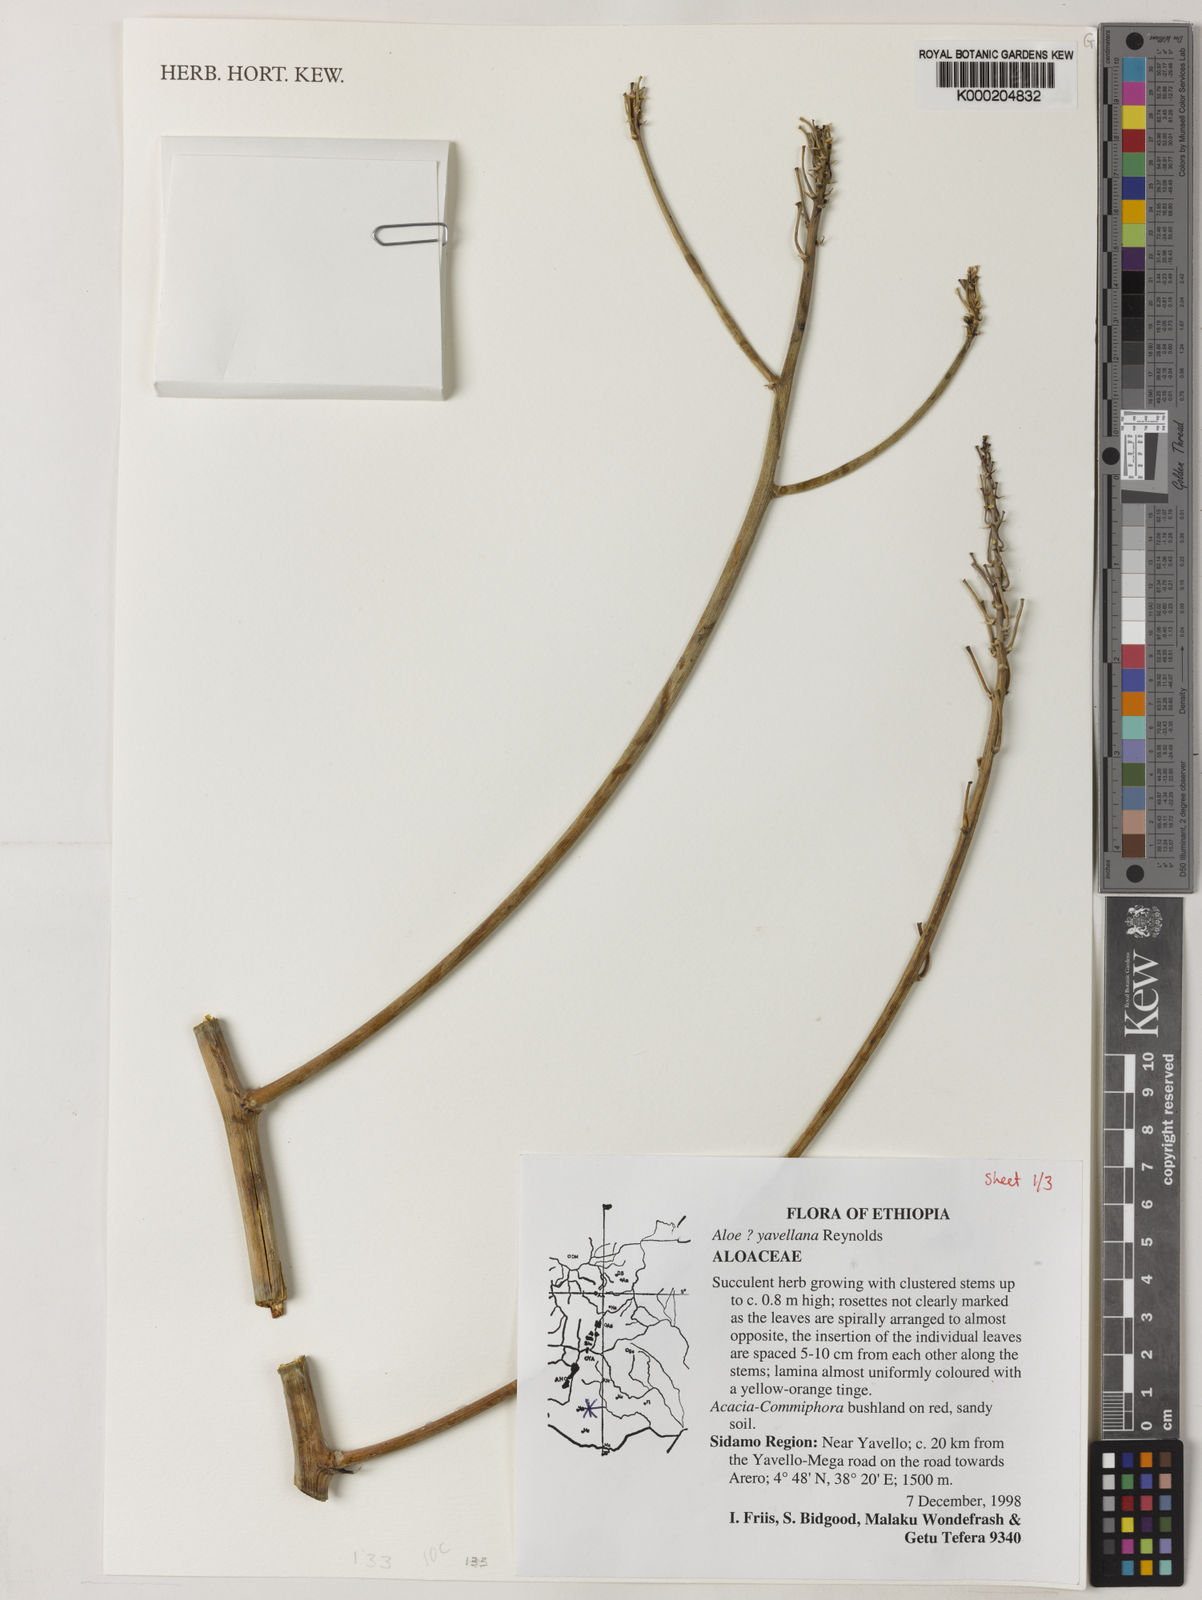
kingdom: Plantae
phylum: Tracheophyta
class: Liliopsida
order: Asparagales
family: Asphodelaceae
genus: Aloe
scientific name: Aloe yavellana
